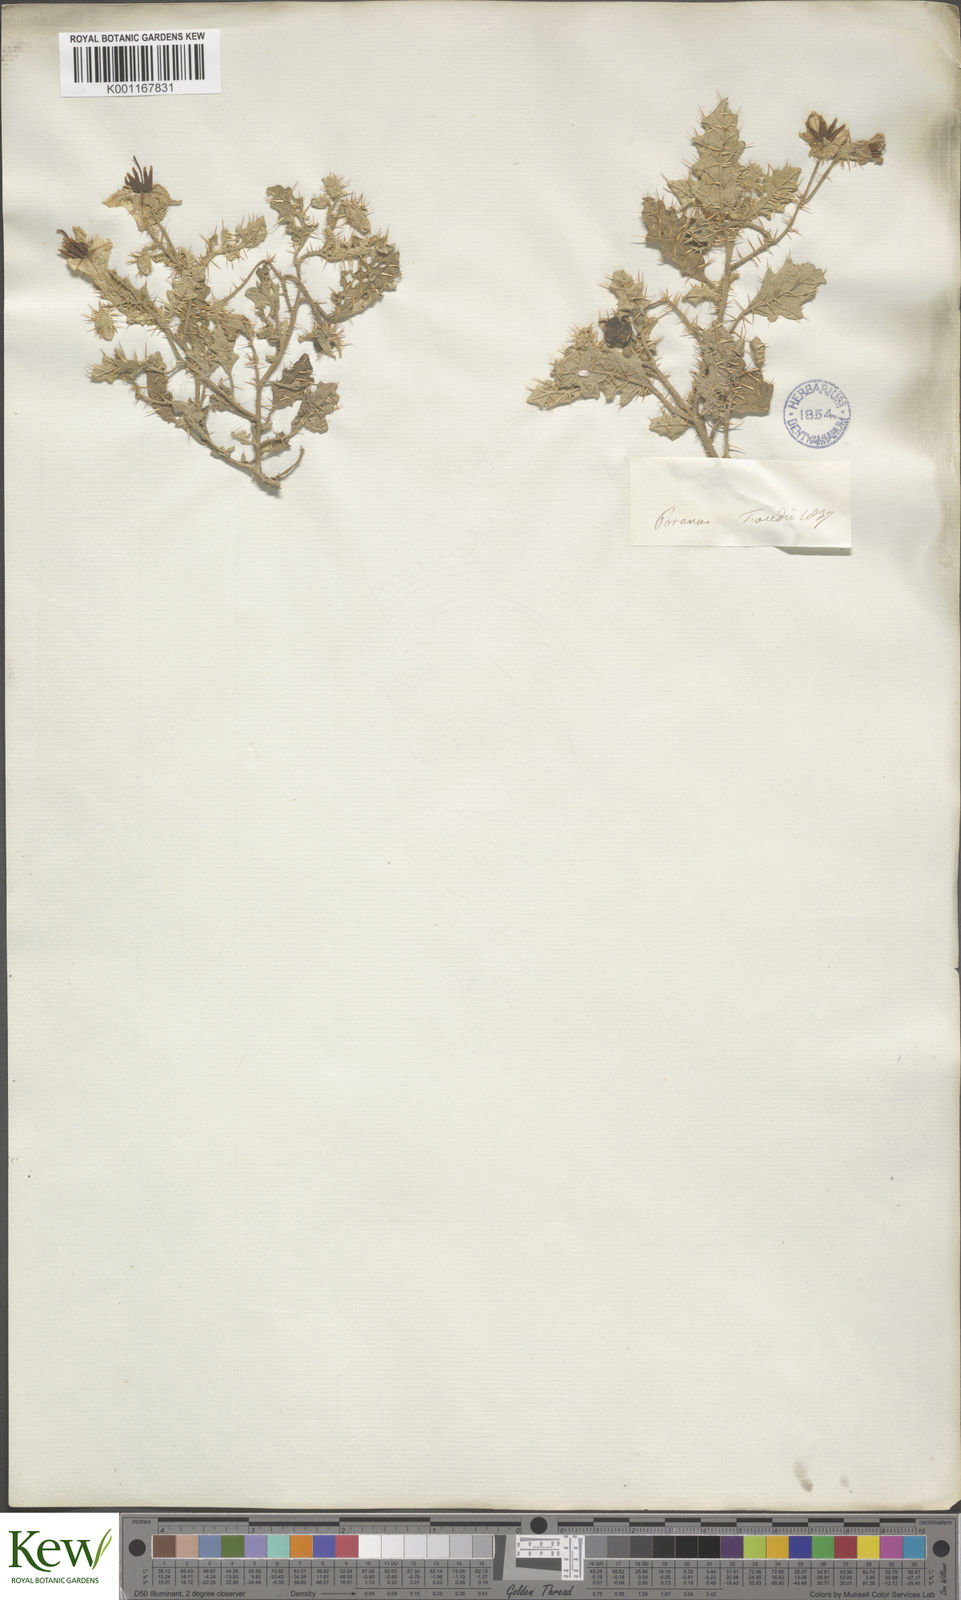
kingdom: Plantae
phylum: Tracheophyta
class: Magnoliopsida
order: Solanales
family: Solanaceae
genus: Solanum
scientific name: Solanum juvenale
